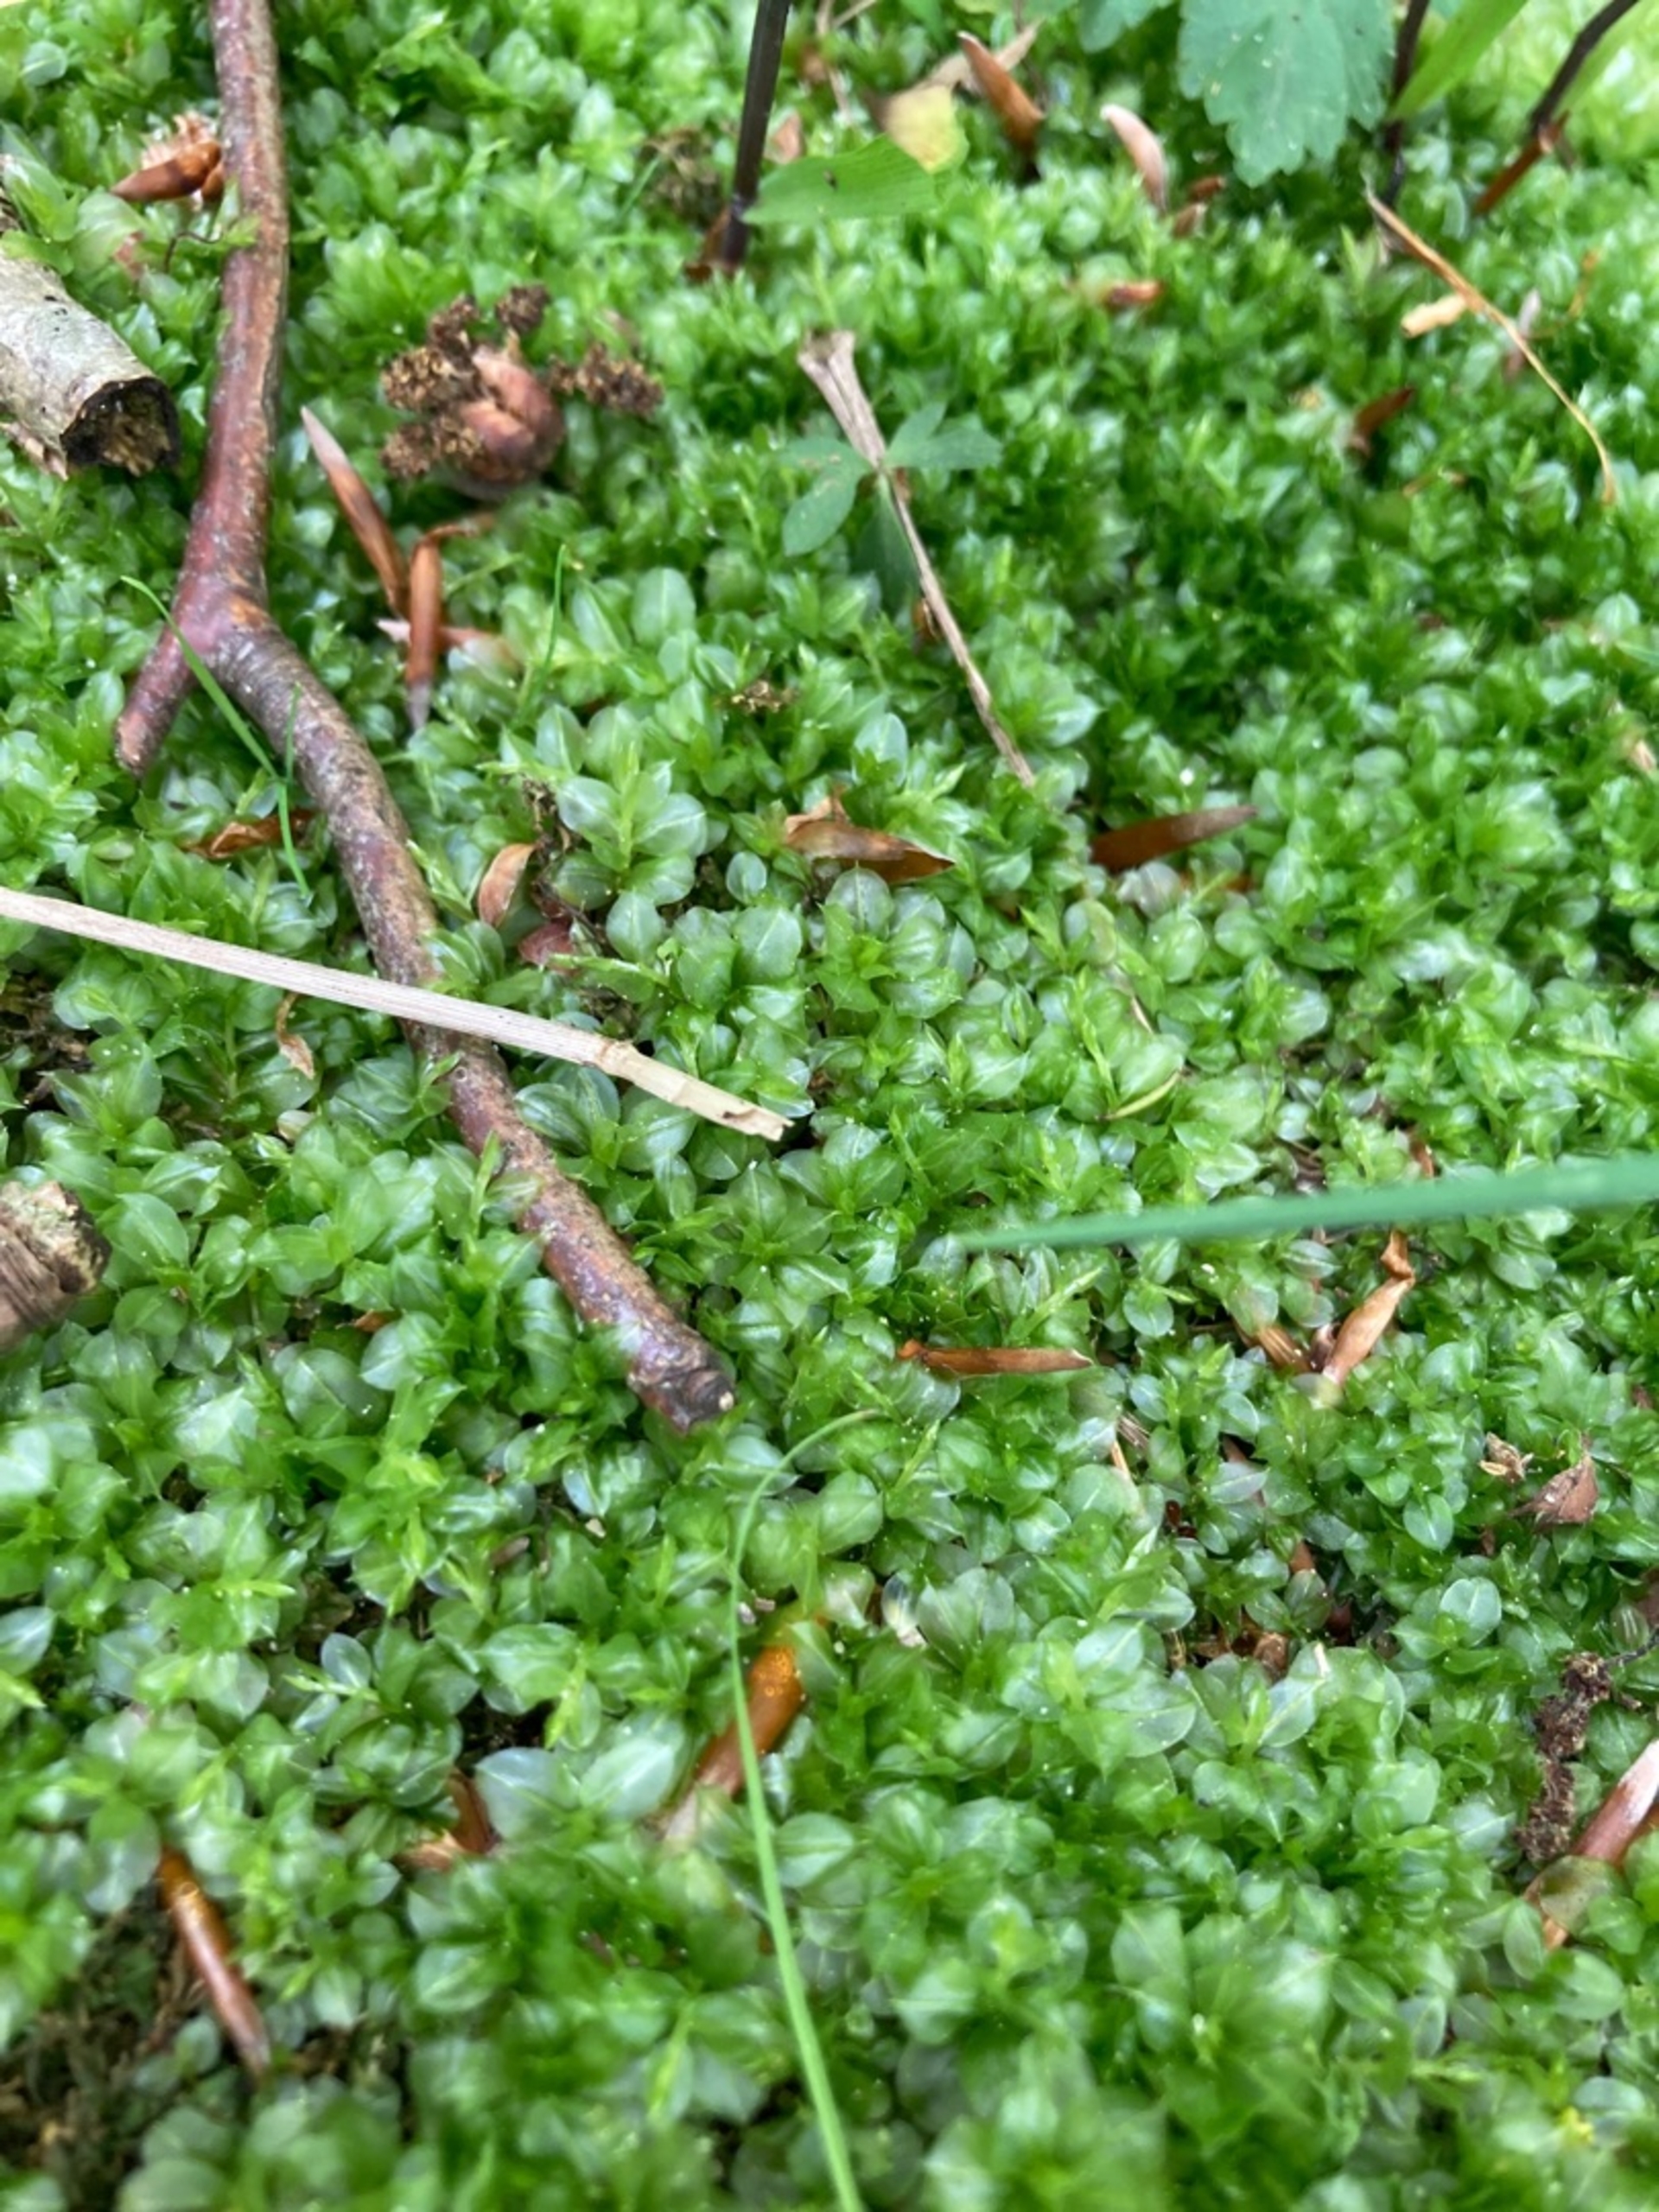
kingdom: Plantae
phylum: Bryophyta
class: Bryopsida
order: Bryales
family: Mniaceae
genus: Plagiomnium
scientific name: Plagiomnium
